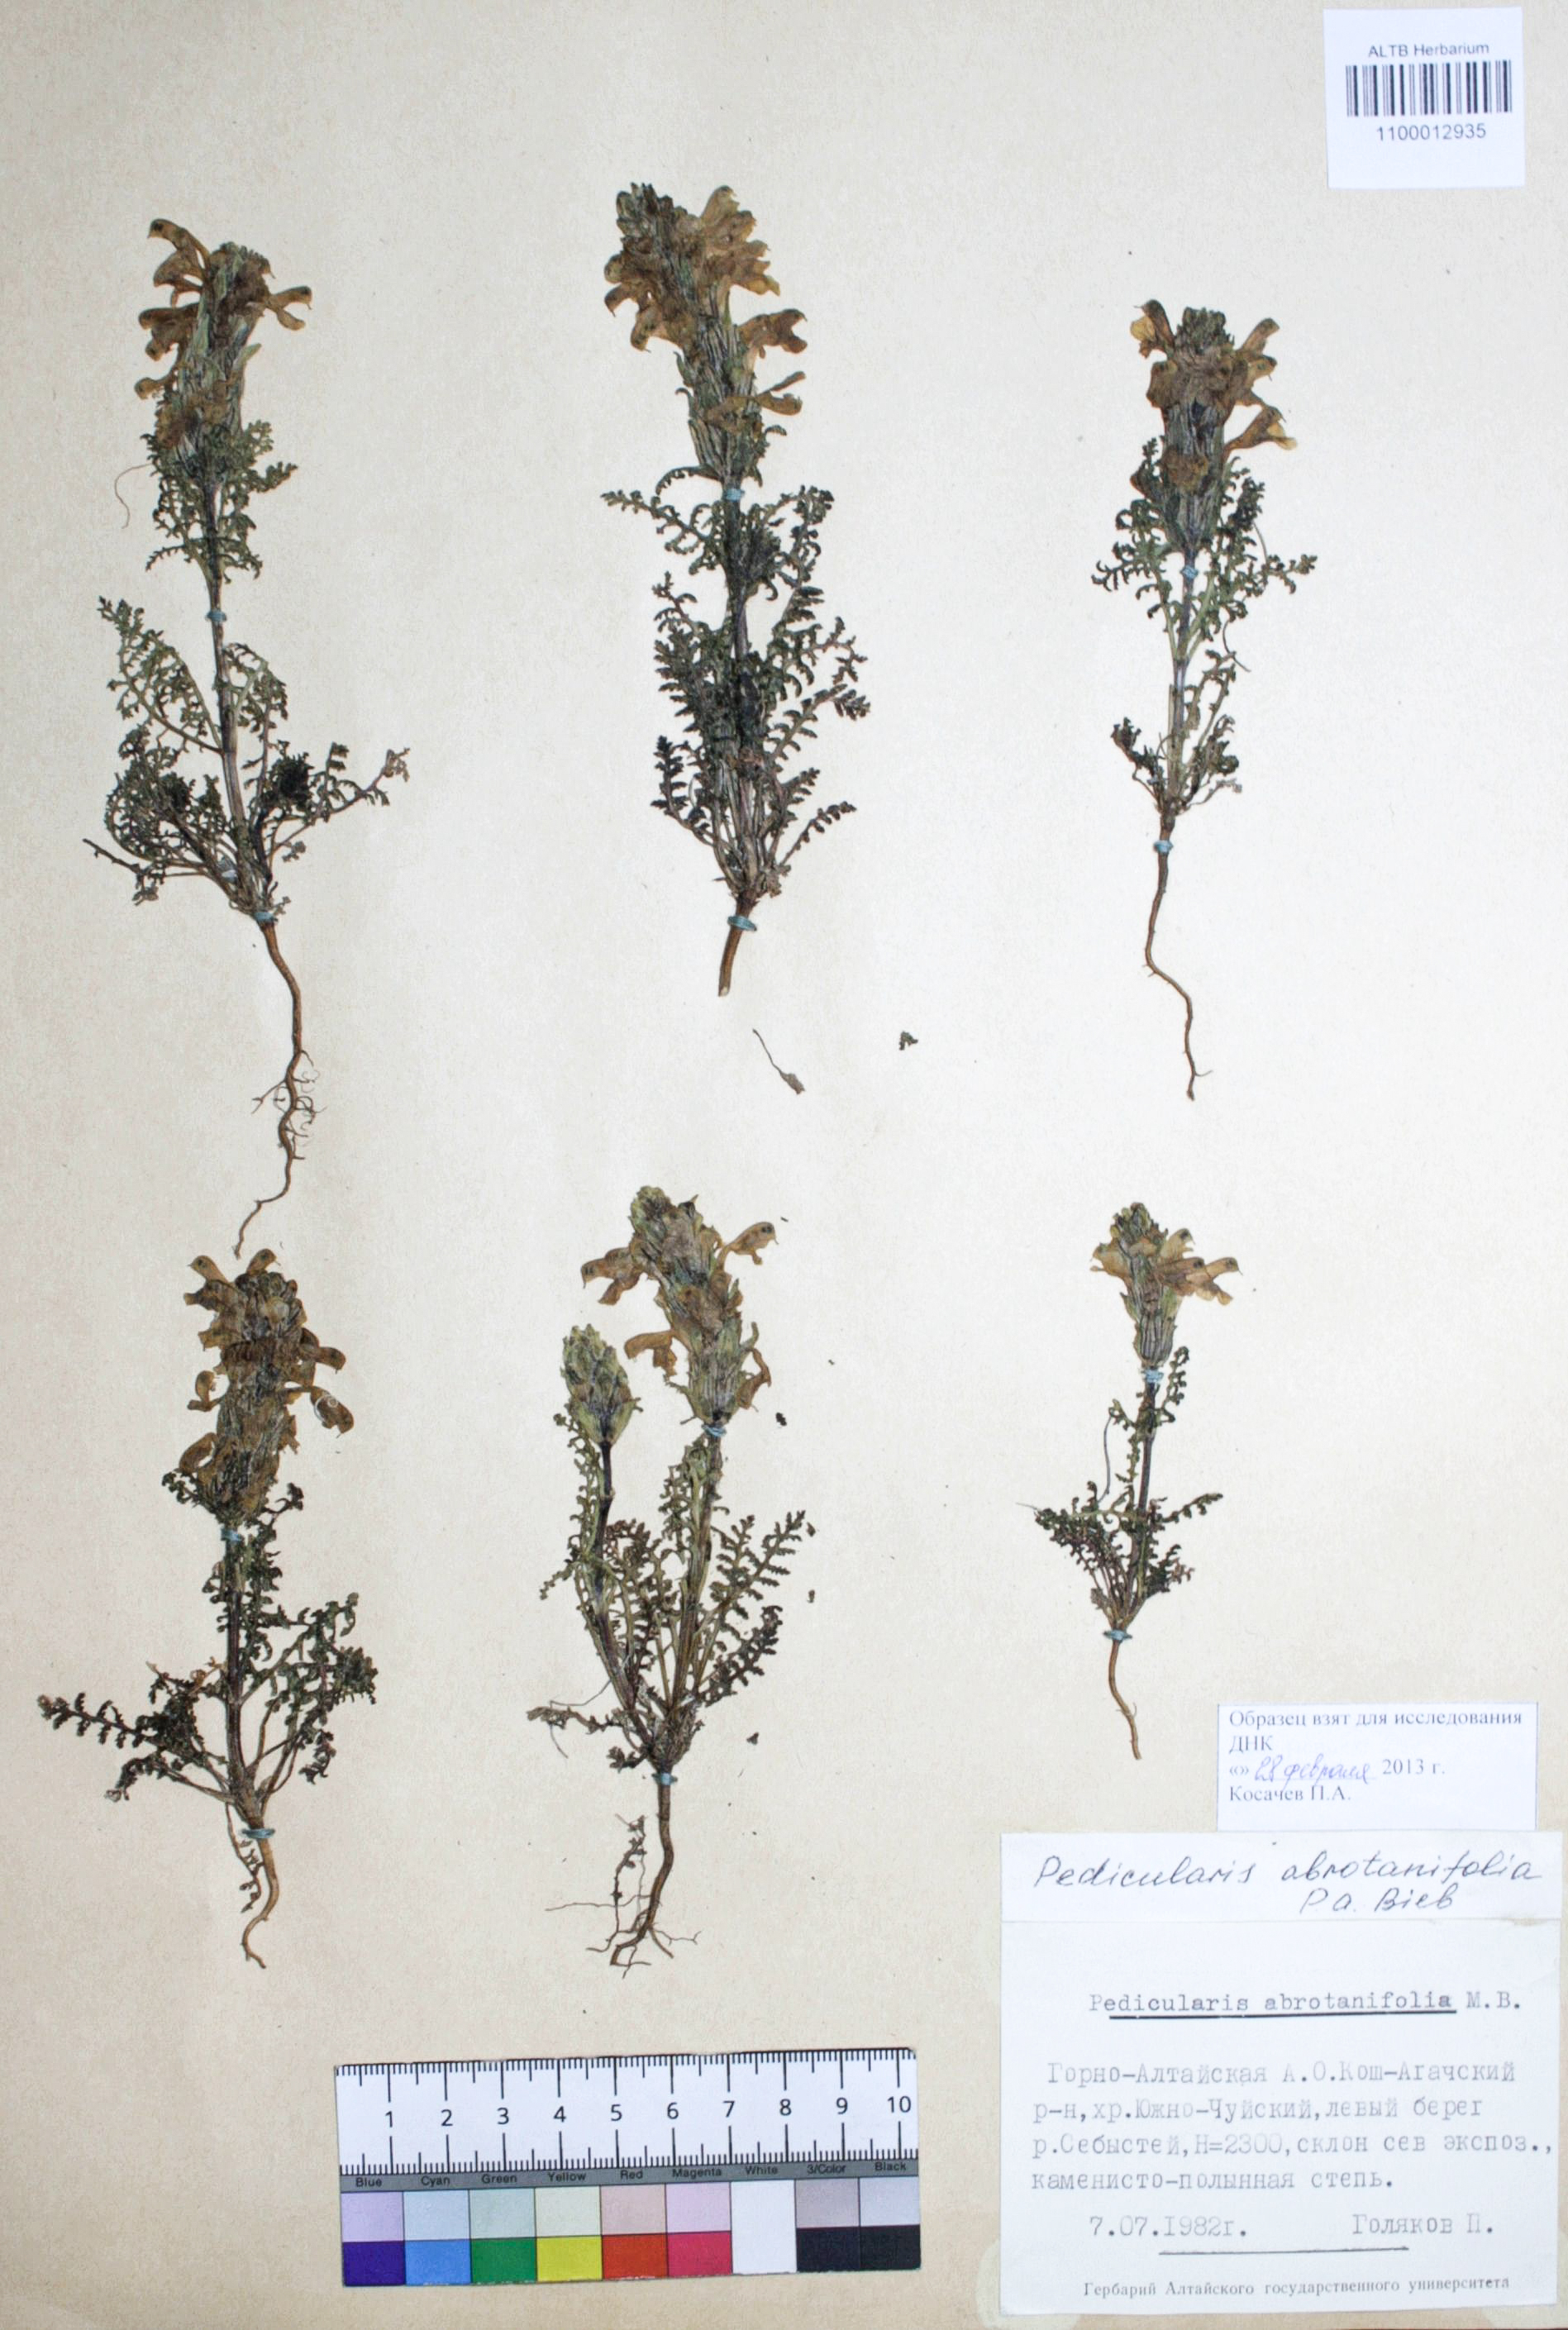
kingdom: Plantae
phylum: Tracheophyta
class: Magnoliopsida
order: Lamiales
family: Orobanchaceae
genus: Pedicularis
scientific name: Pedicularis abrotanifolia
